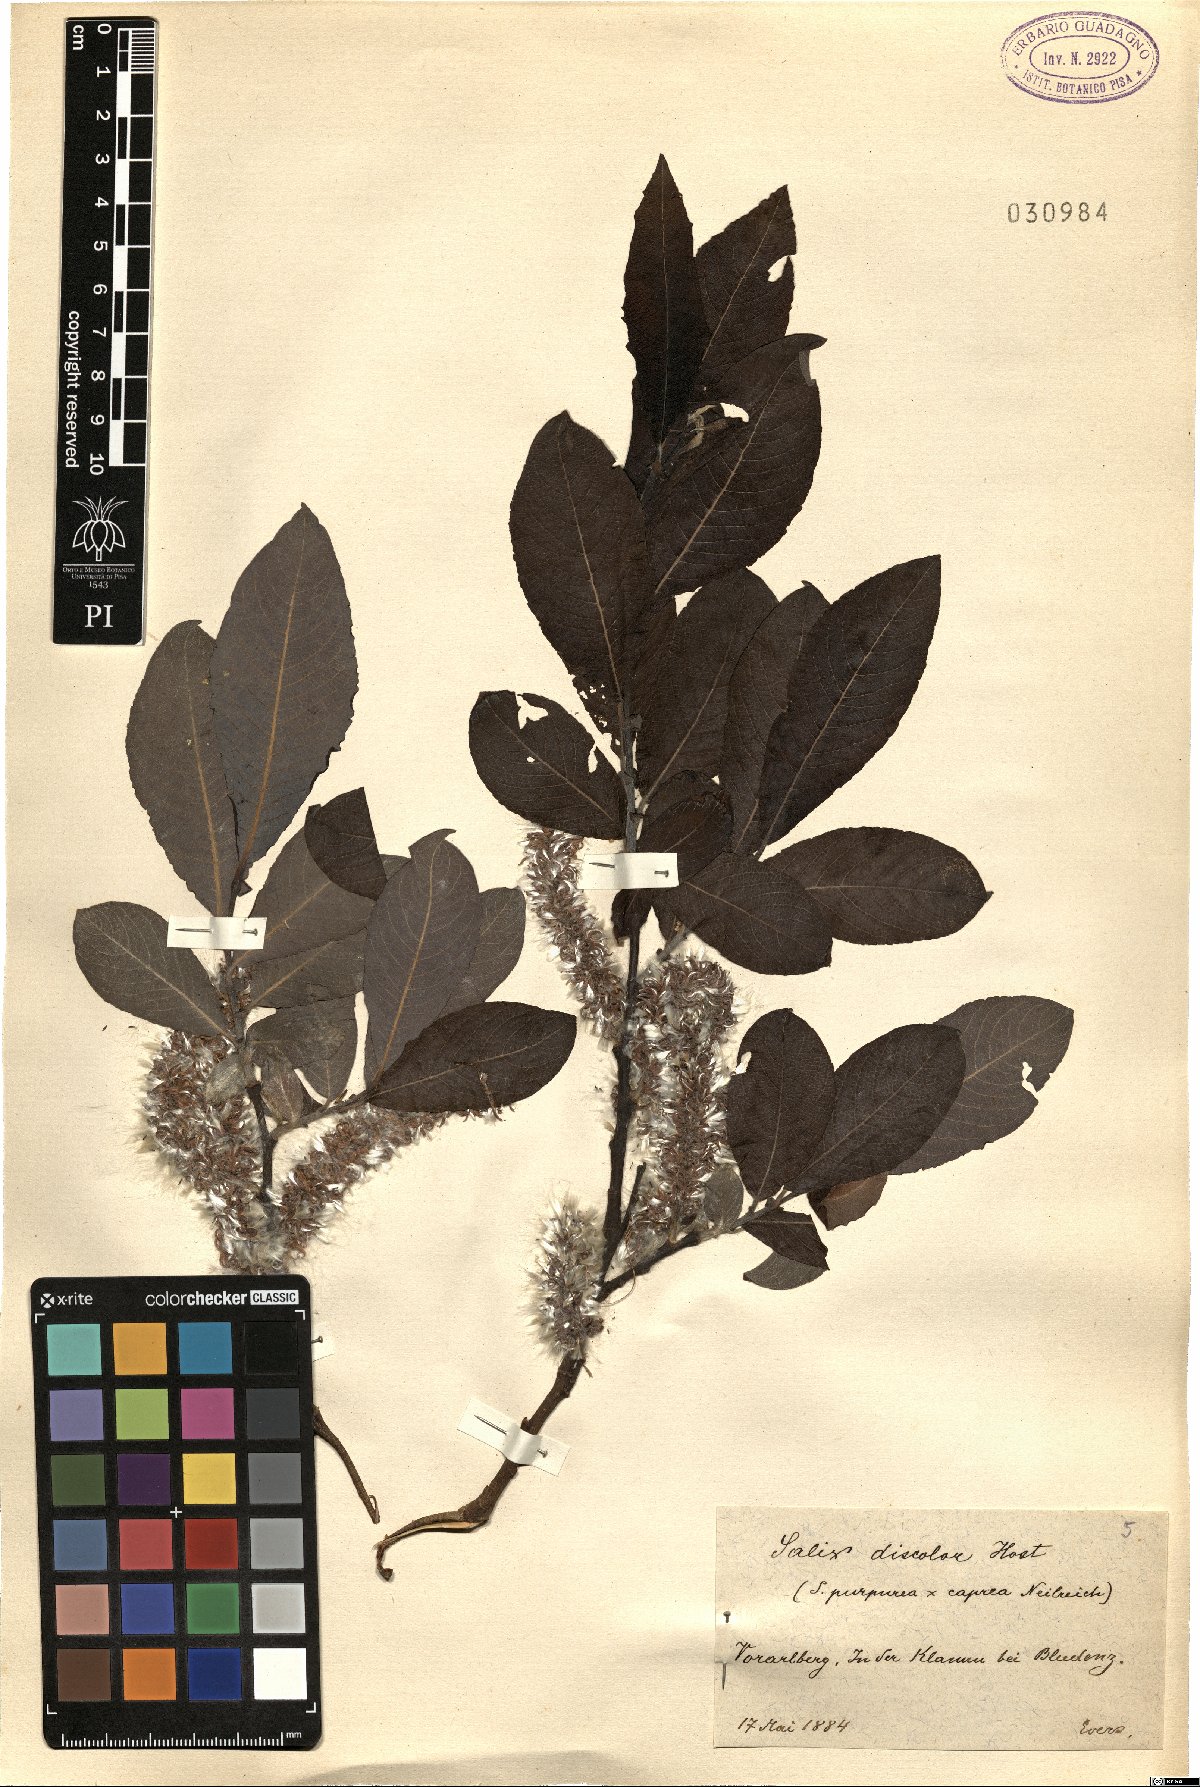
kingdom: Plantae
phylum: Tracheophyta
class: Magnoliopsida
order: Malpighiales
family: Salicaceae
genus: Salix
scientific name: Salix wimmeriana
